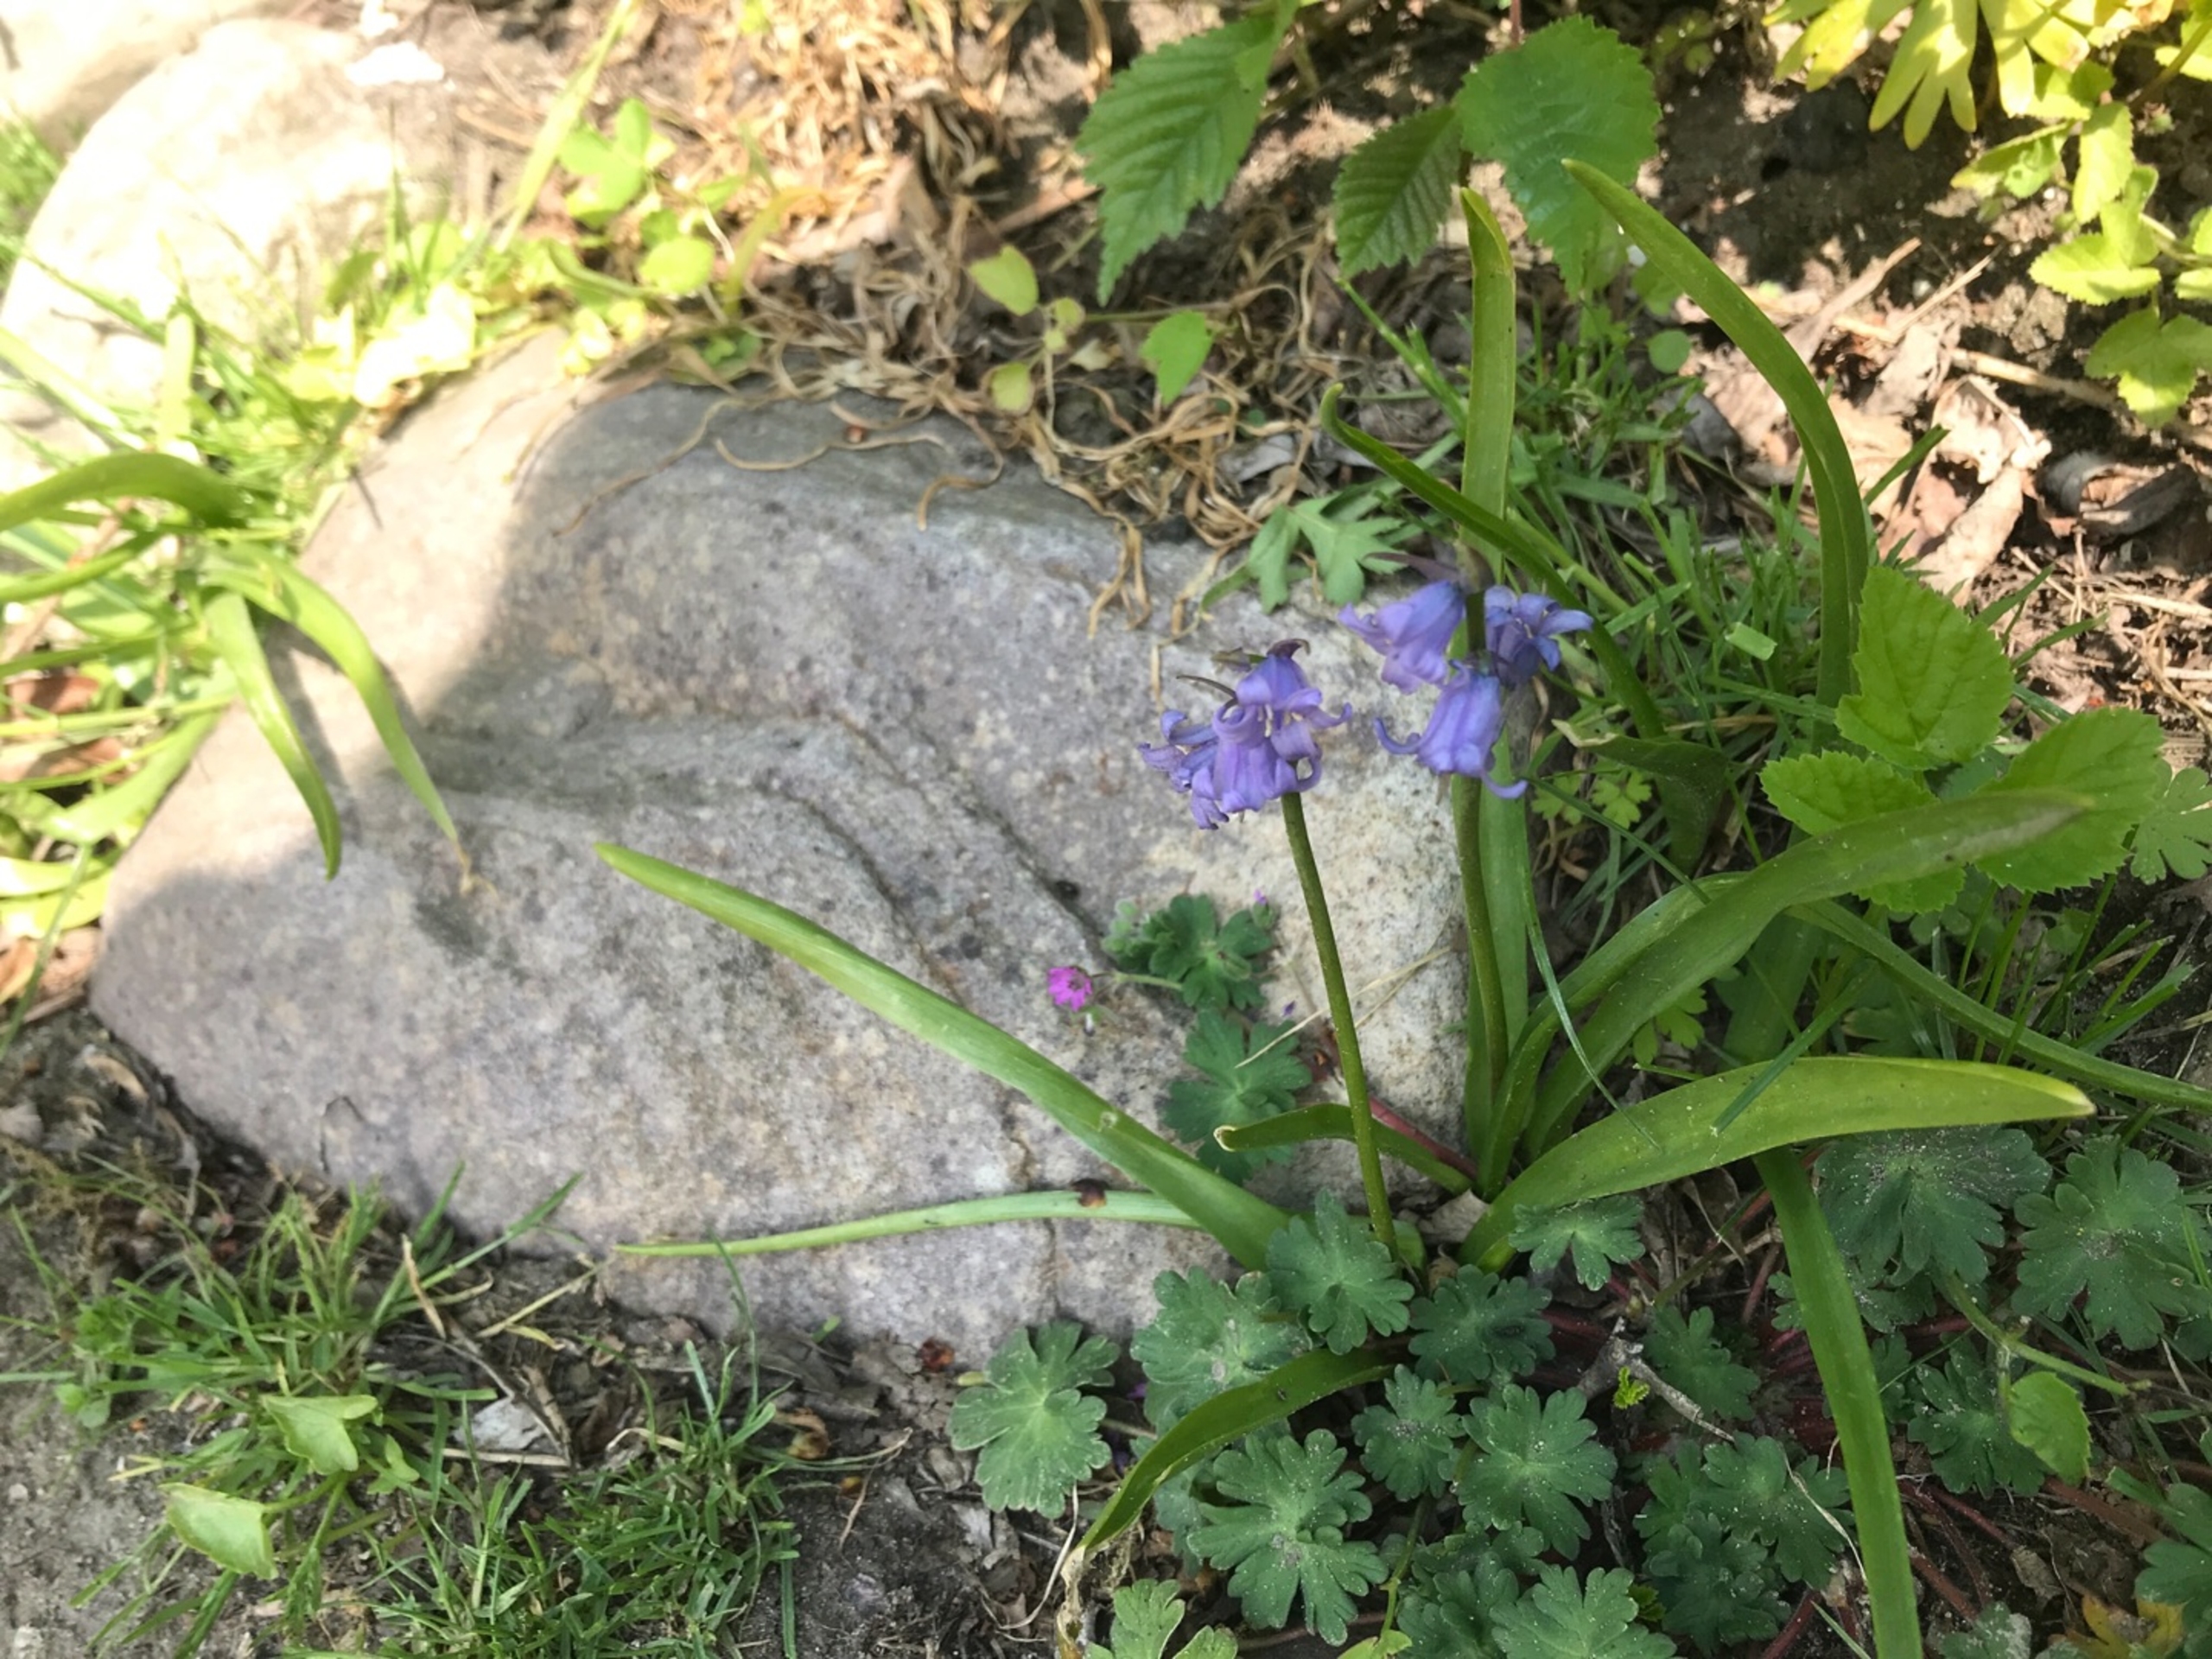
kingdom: Plantae
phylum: Tracheophyta
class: Liliopsida
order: Asparagales
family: Asparagaceae
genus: Hyacinthoides
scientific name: Hyacinthoides massartiana
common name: Hybrid-klokkeskilla
